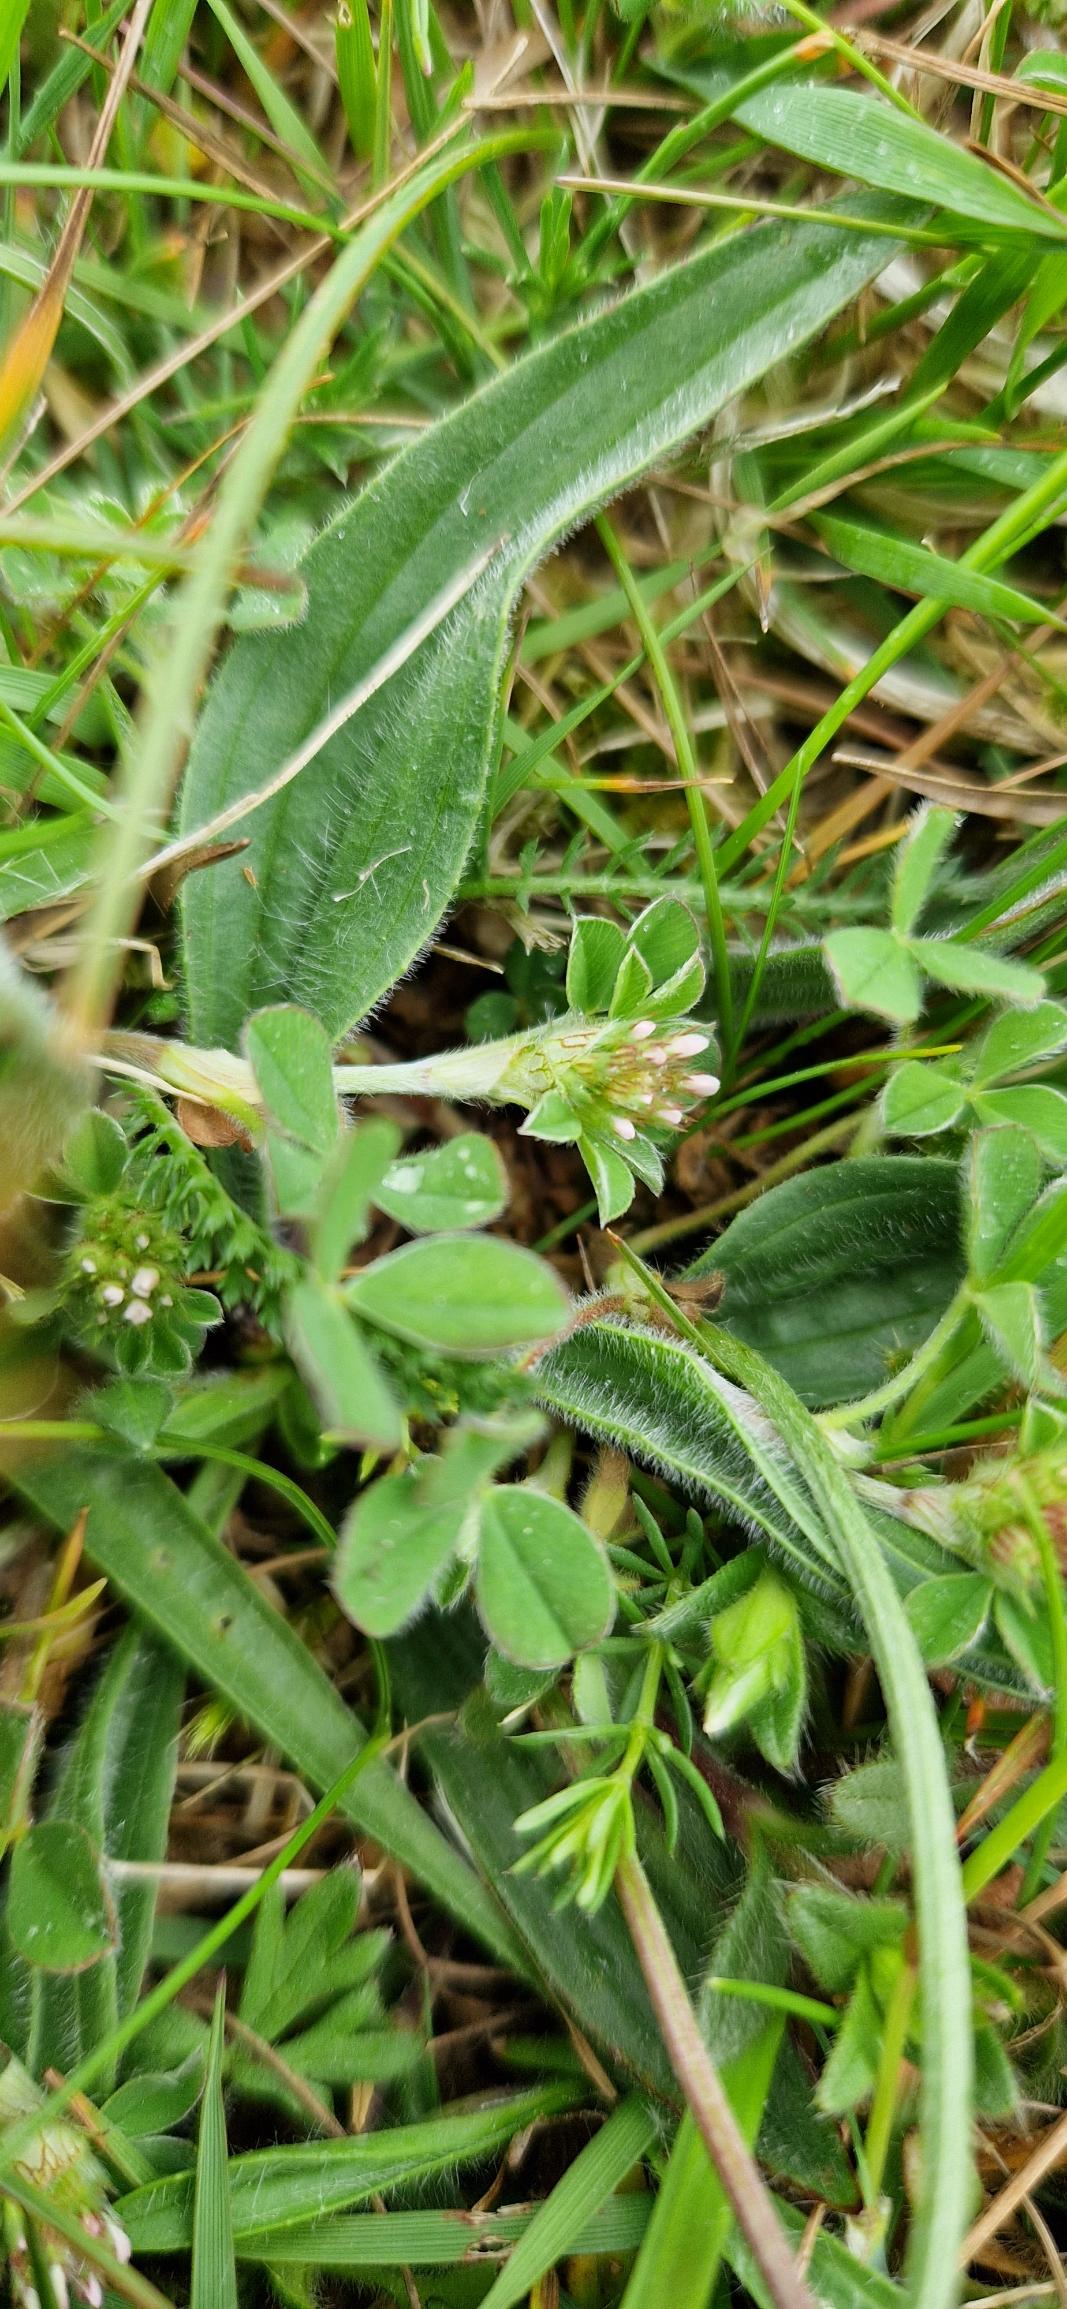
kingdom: Plantae
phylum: Tracheophyta
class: Magnoliopsida
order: Fabales
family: Fabaceae
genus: Trifolium
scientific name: Trifolium striatum
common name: Stribet kløver
